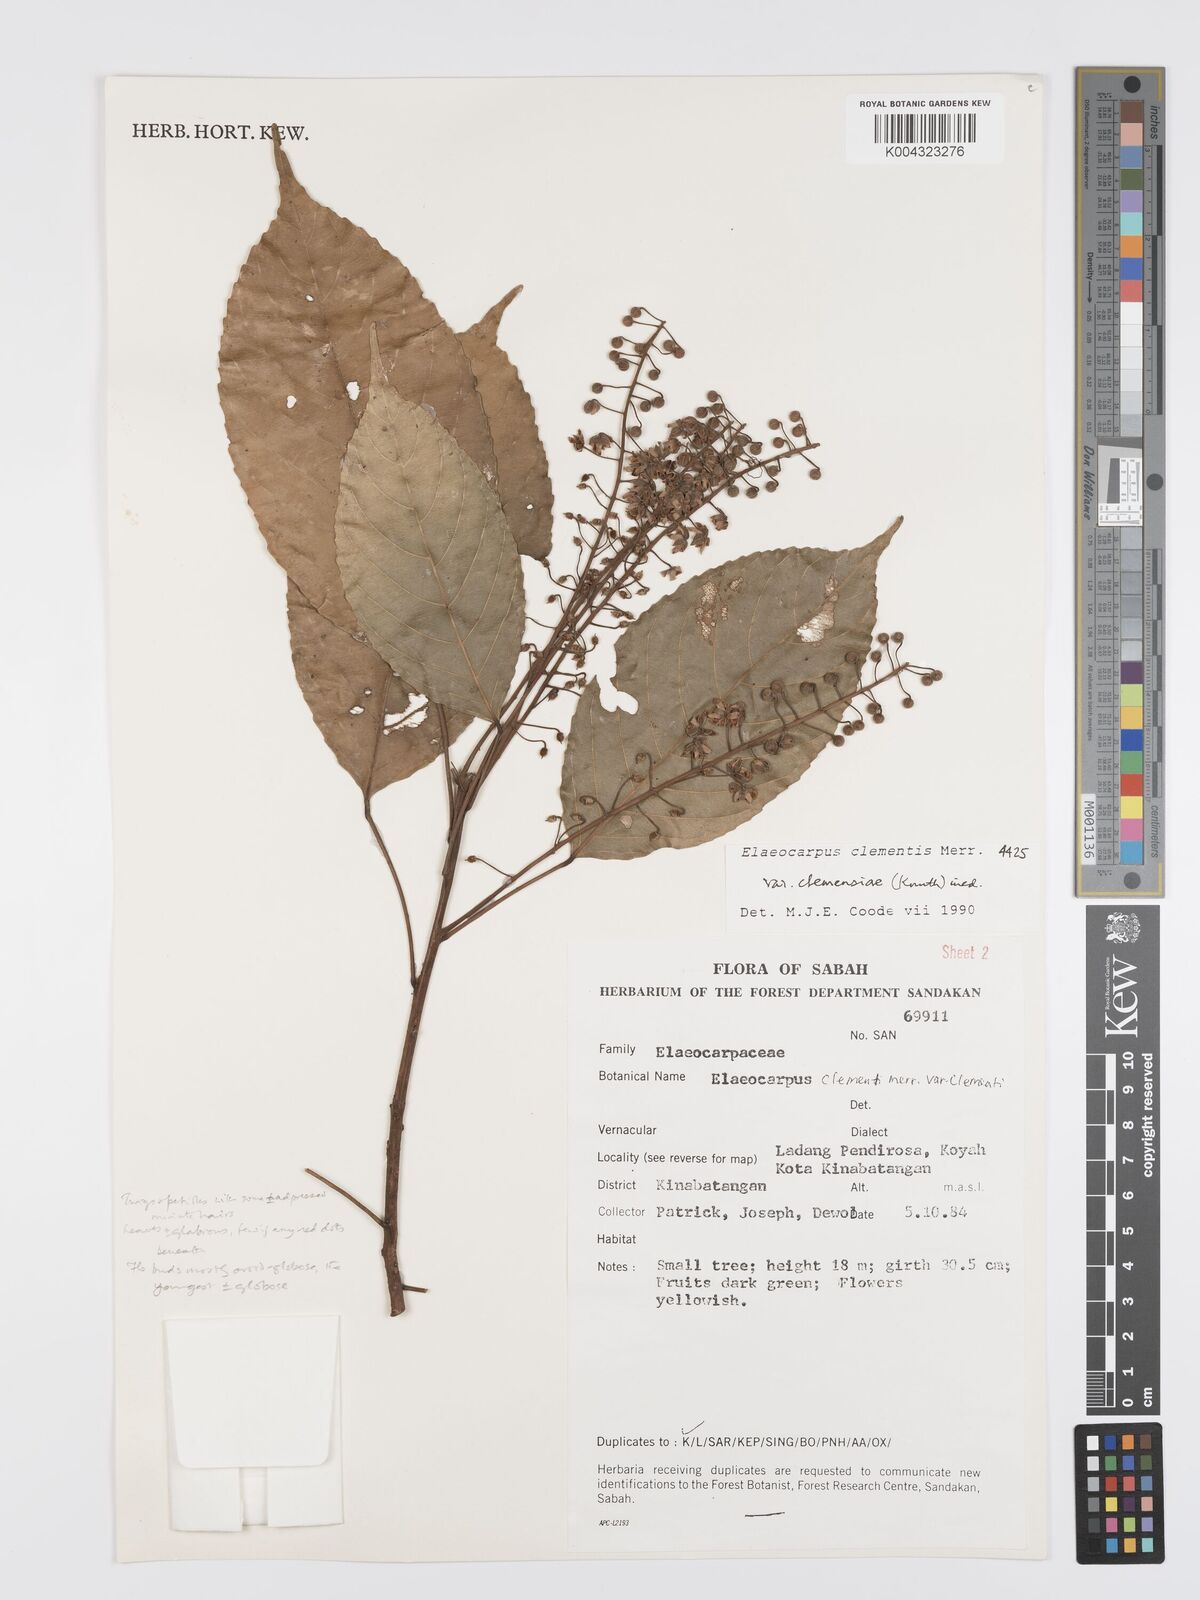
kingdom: Plantae
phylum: Tracheophyta
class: Magnoliopsida
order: Oxalidales
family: Elaeocarpaceae
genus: Elaeocarpus
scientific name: Elaeocarpus clementis
